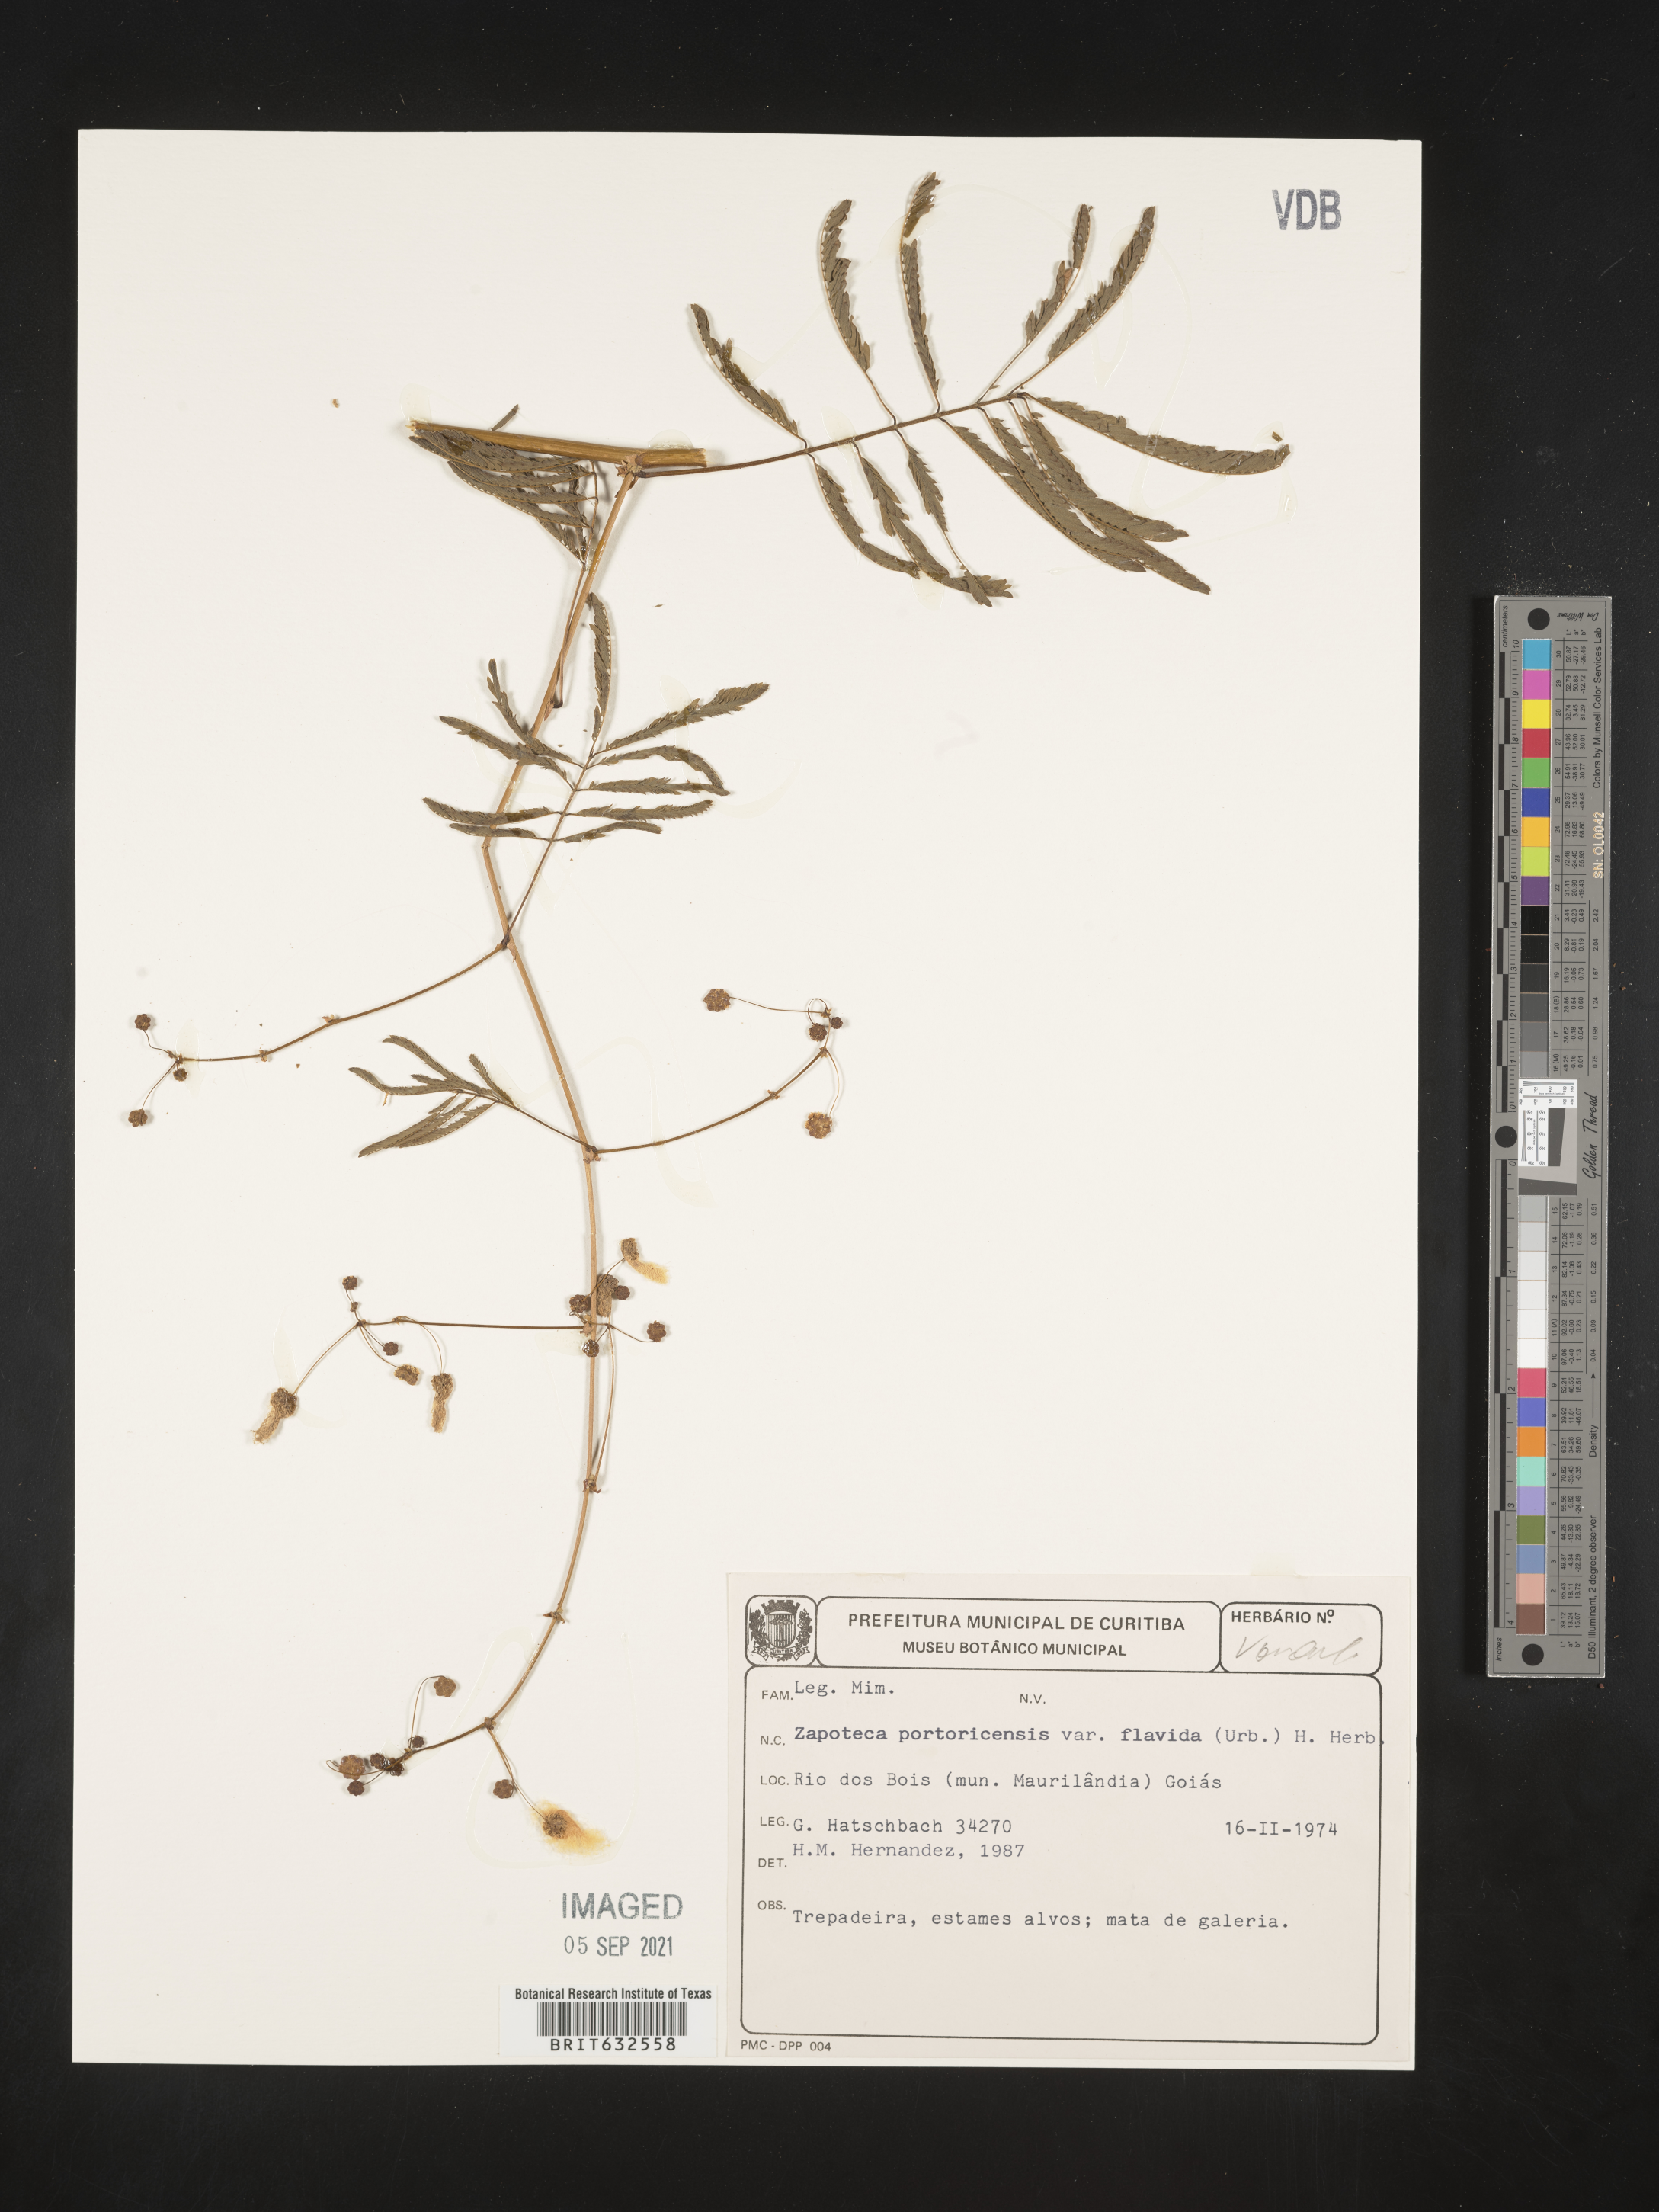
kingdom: Plantae
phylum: Tracheophyta
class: Magnoliopsida
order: Fabales
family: Fabaceae
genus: Zapoteca
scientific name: Zapoteca
